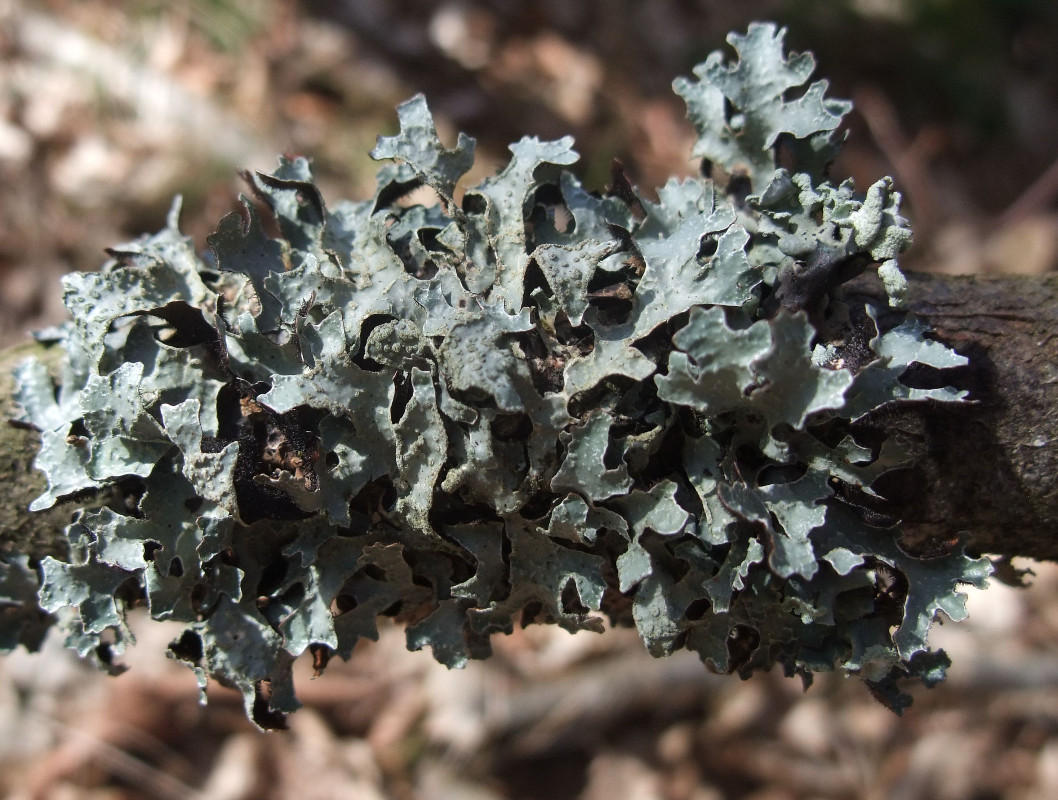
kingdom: Fungi
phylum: Ascomycota
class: Lecanoromycetes
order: Lecanorales
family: Parmeliaceae
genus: Parmelia
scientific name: Parmelia sulcata
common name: rynket skållav
